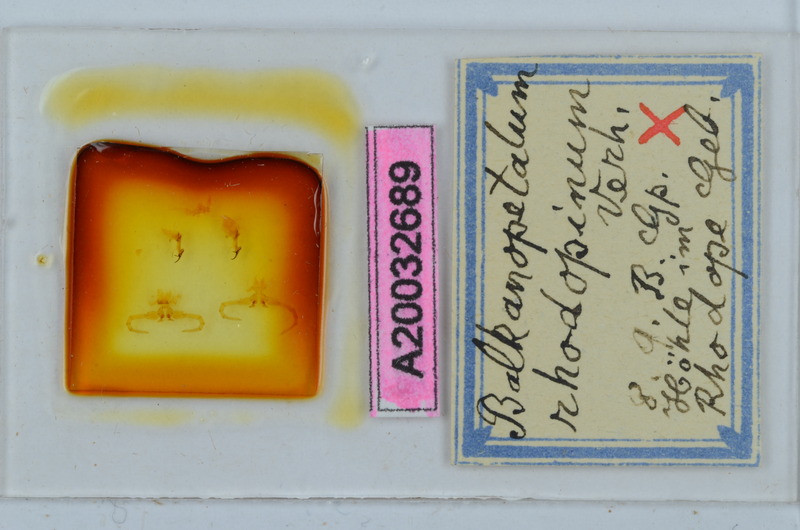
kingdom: Animalia
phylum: Arthropoda
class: Diplopoda
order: Callipodida
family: Schizopetalidae
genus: Balkanopetalum
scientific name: Balkanopetalum rhodopinum
